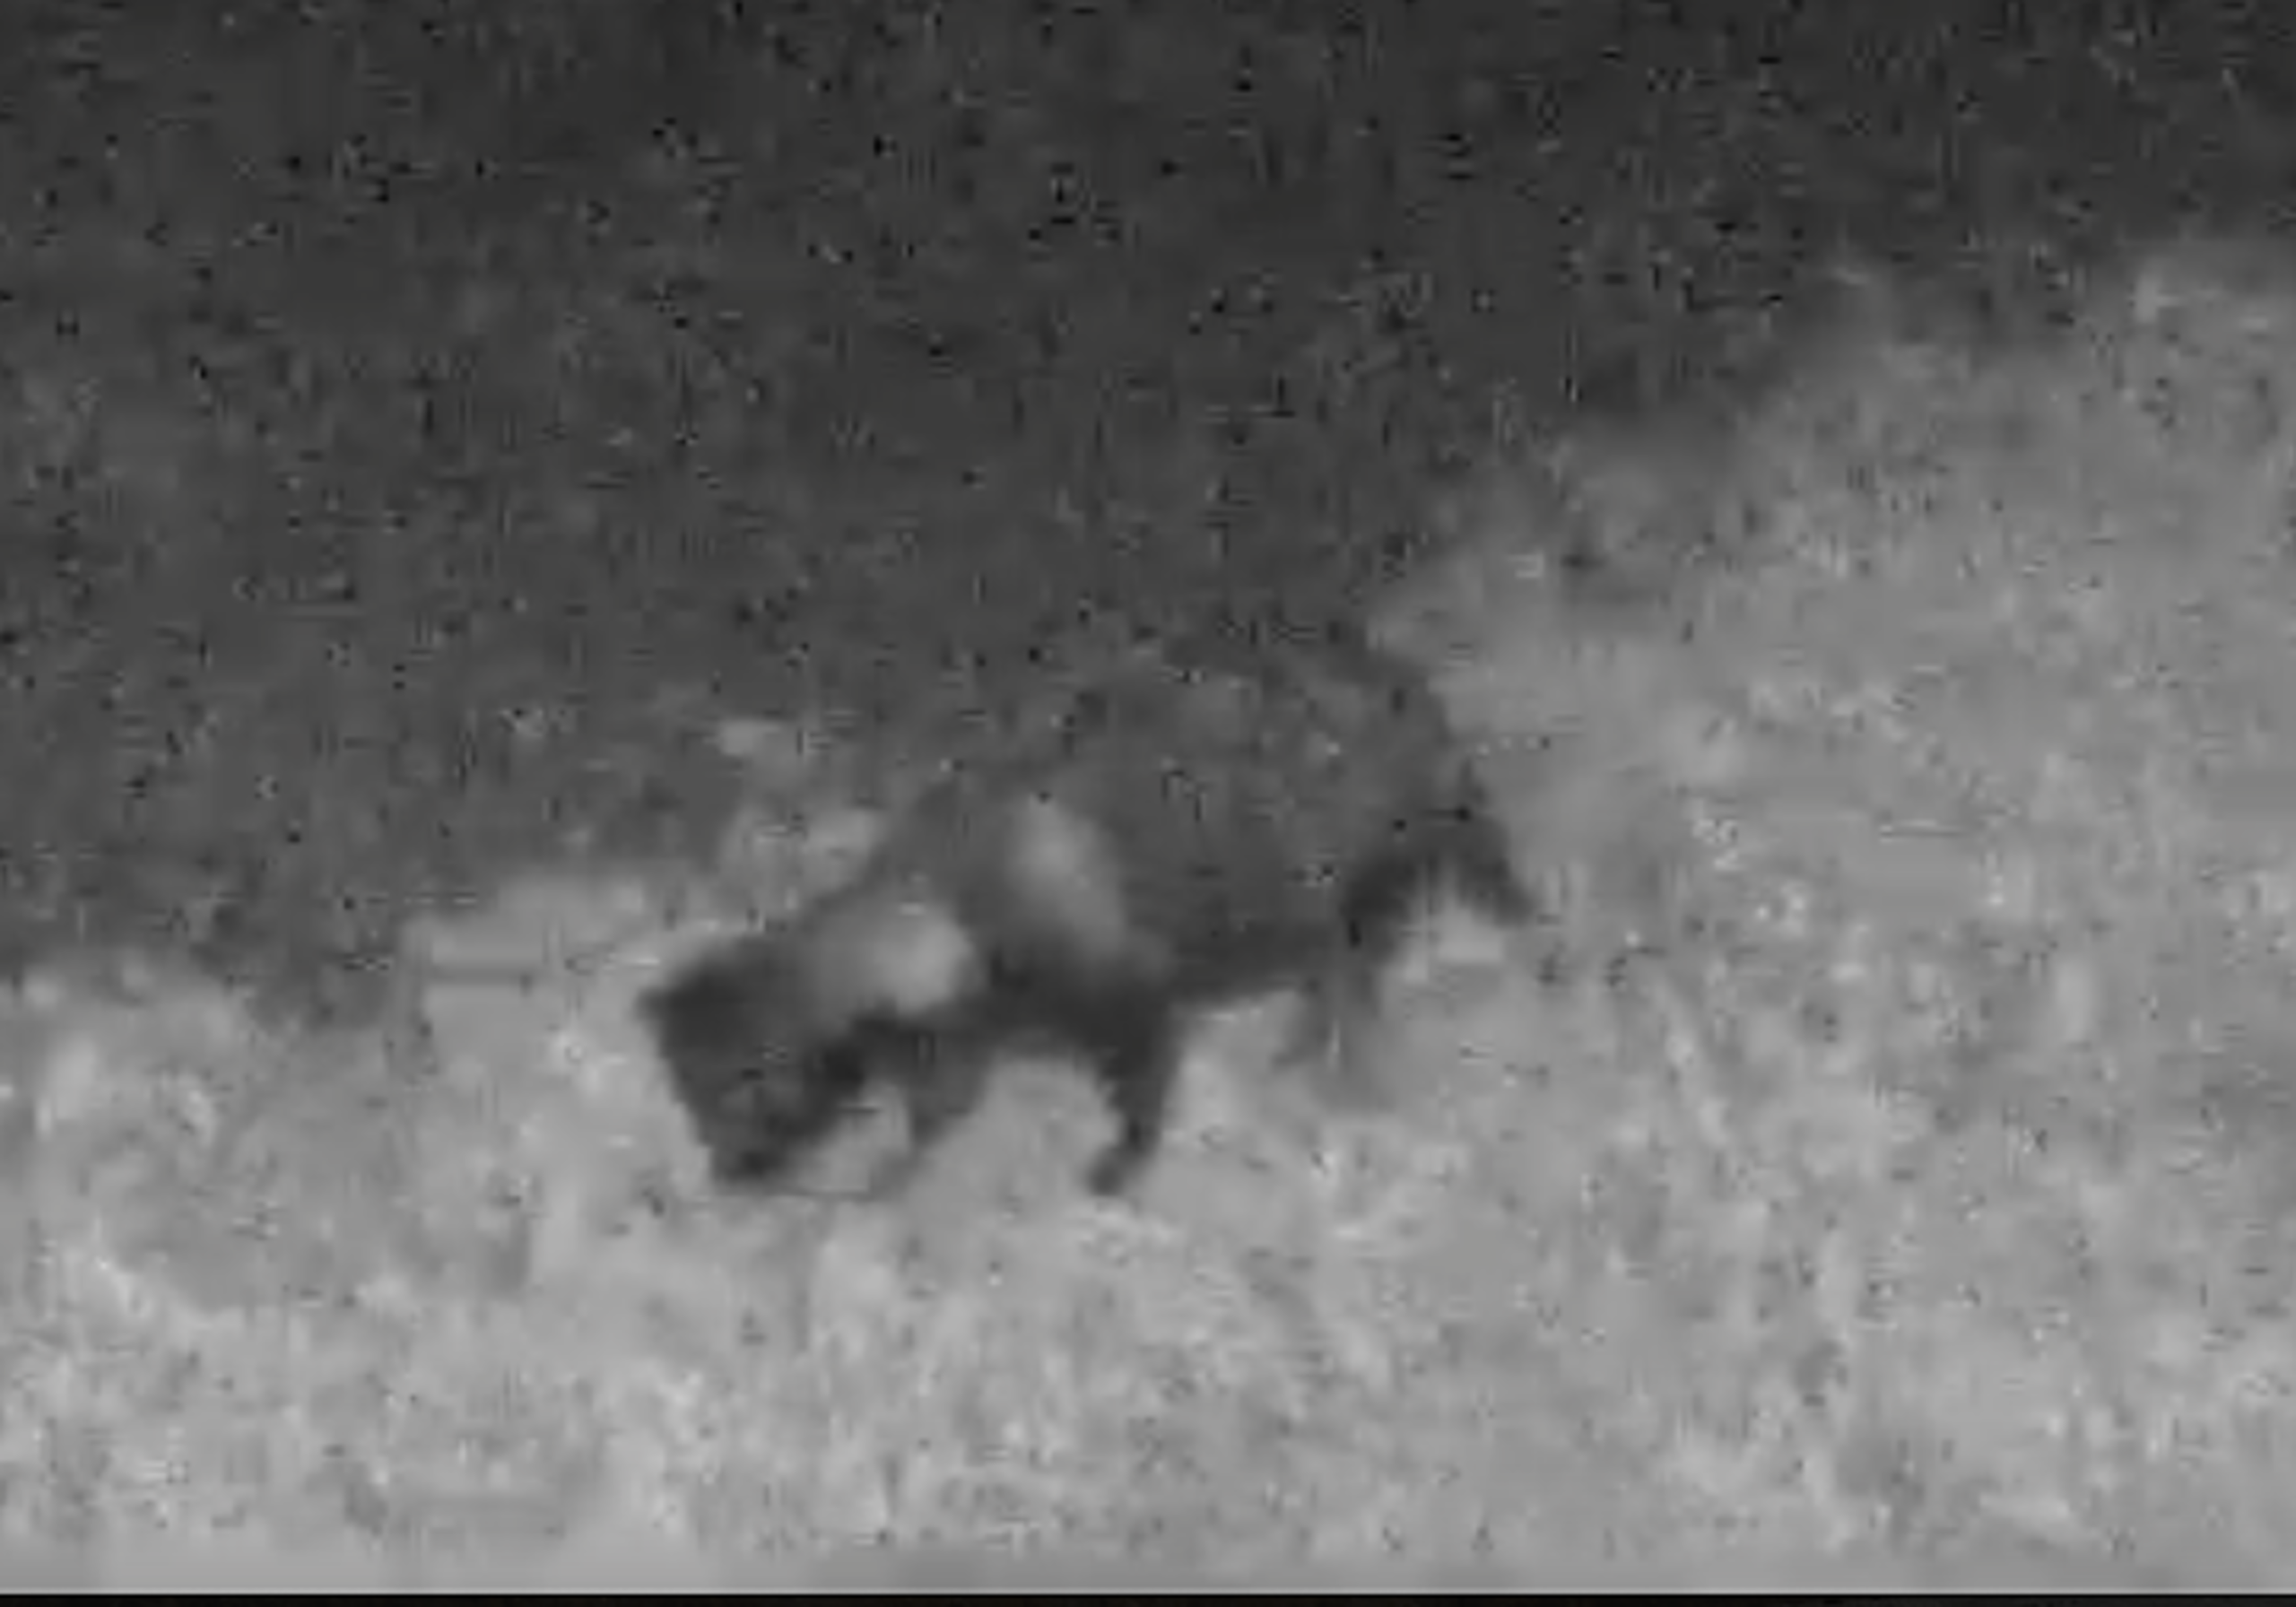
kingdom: Animalia
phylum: Chordata
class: Mammalia
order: Carnivora
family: Canidae
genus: Nyctereutes
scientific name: Nyctereutes procyonoides
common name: Mårhund
